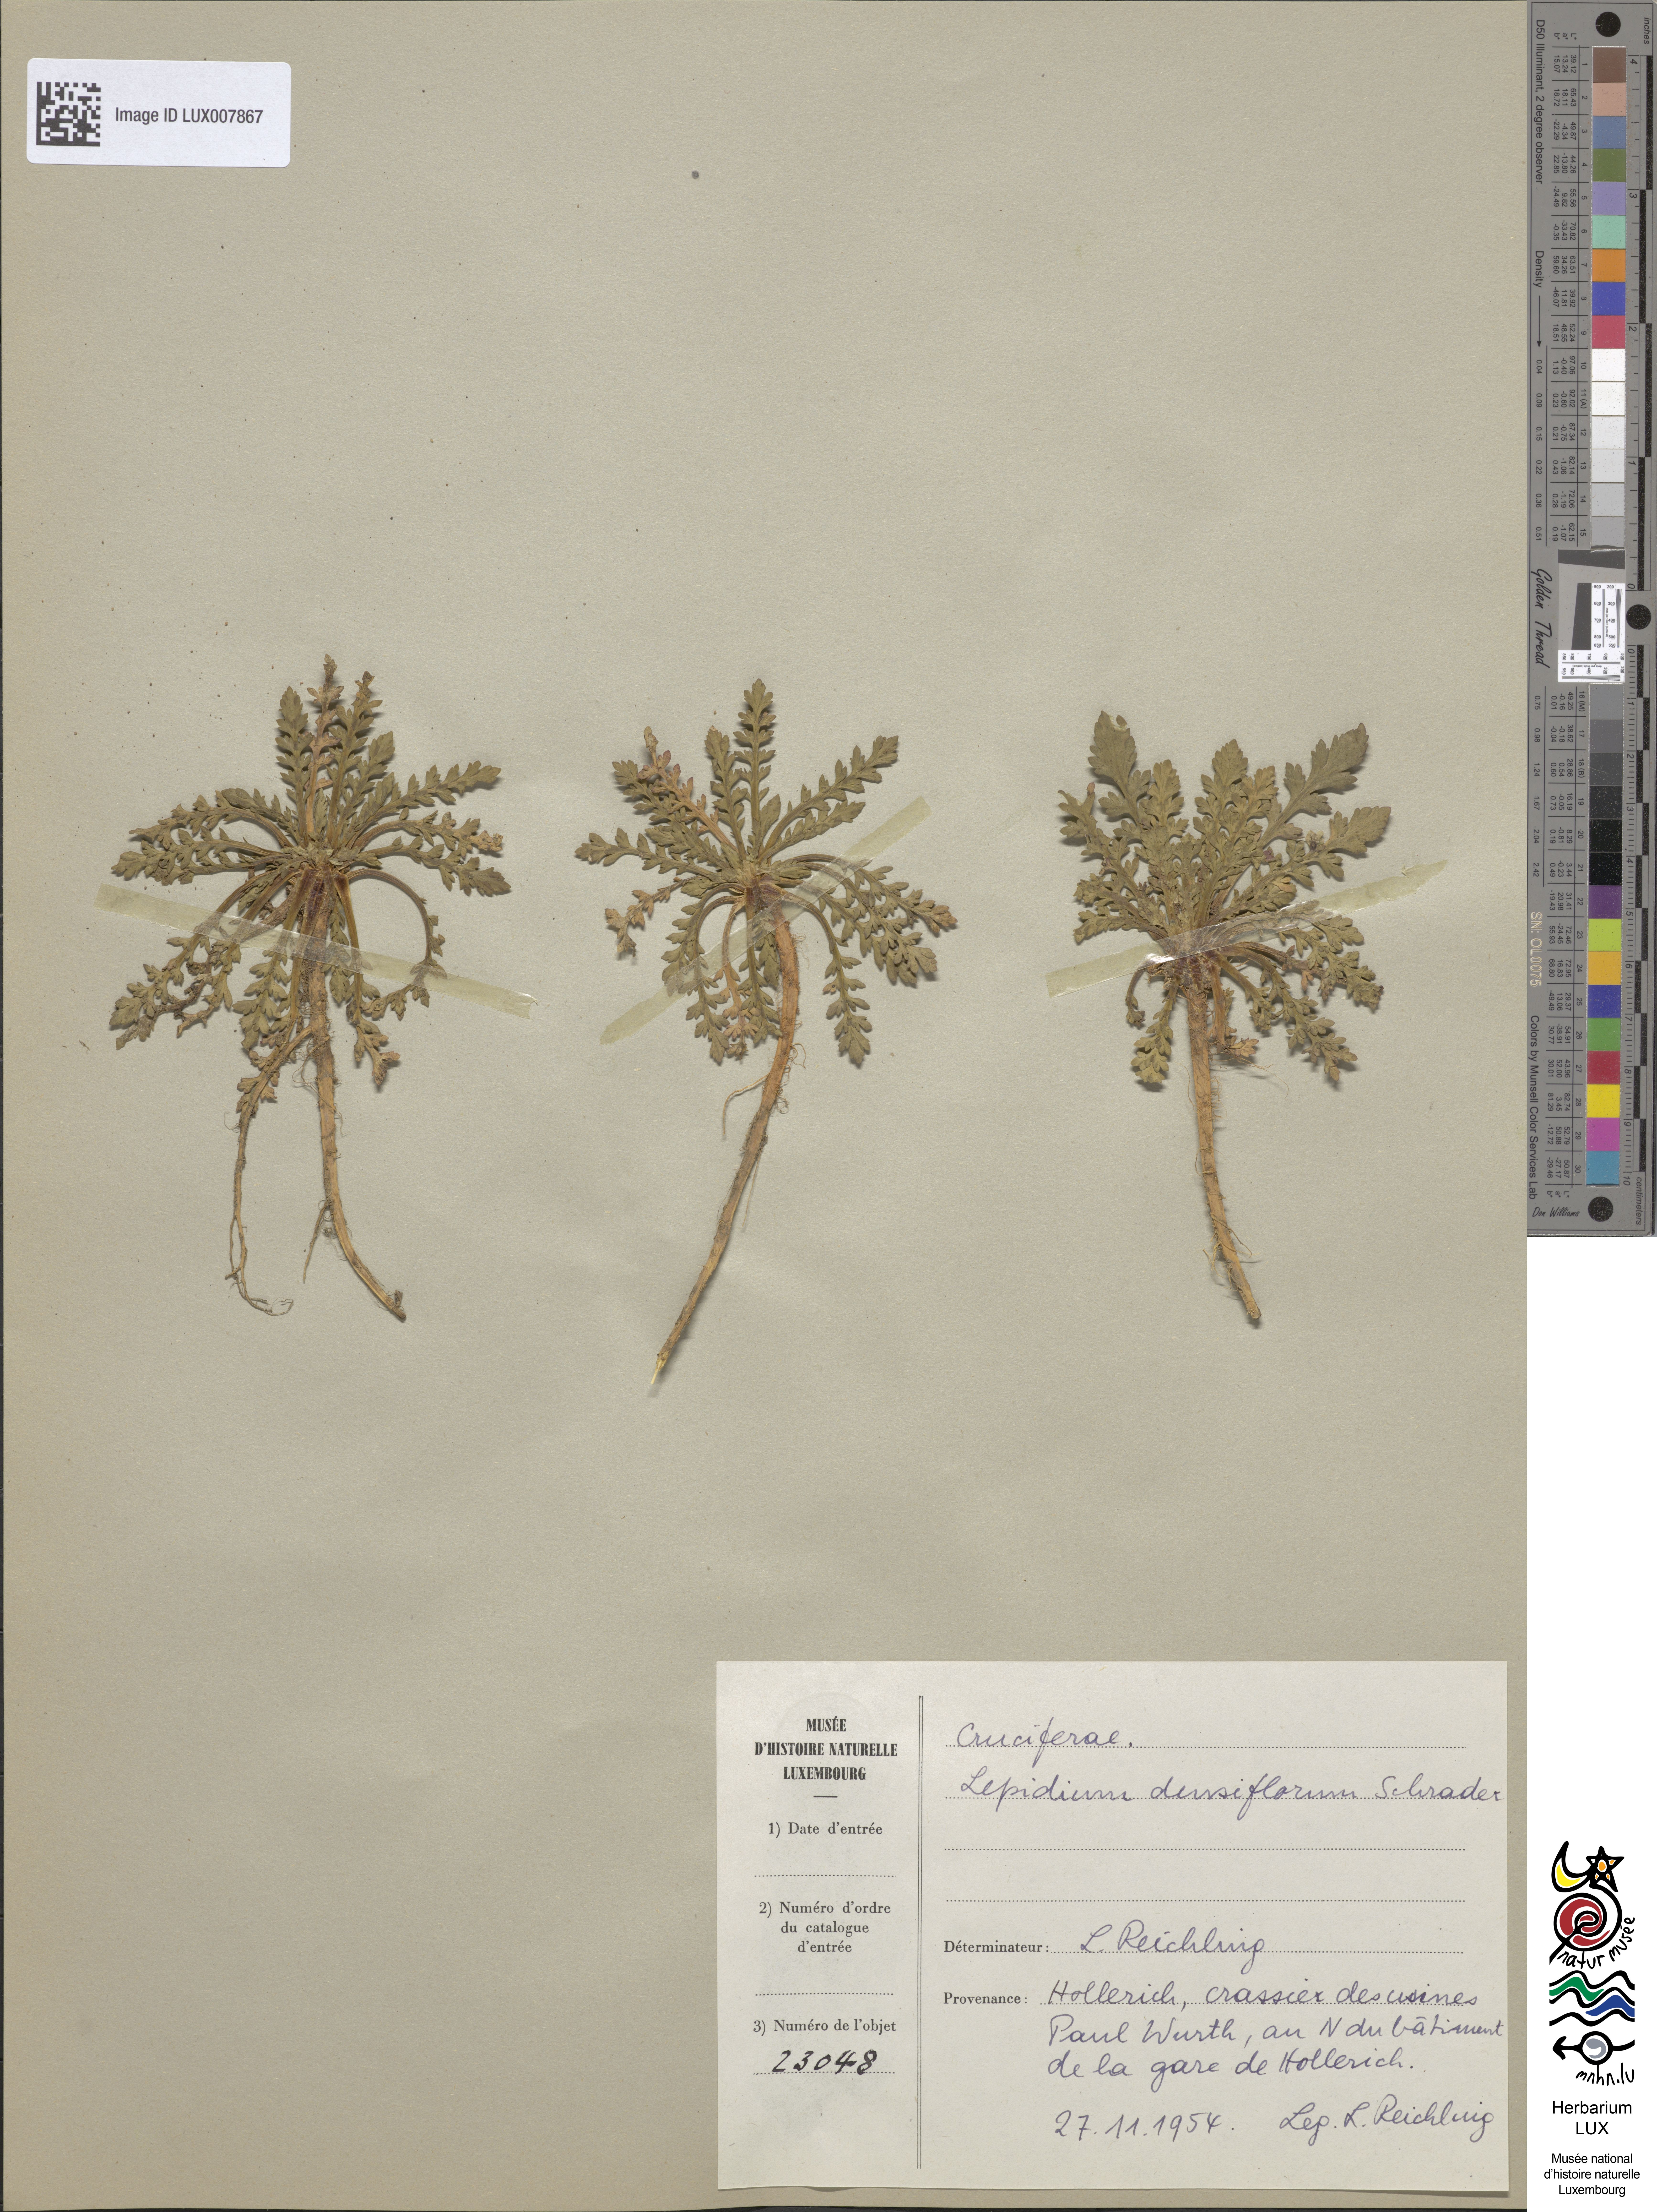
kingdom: Plantae
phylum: Tracheophyta
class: Magnoliopsida
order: Brassicales
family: Brassicaceae
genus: Lepidium
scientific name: Lepidium densiflorum
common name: Miner's pepperwort
